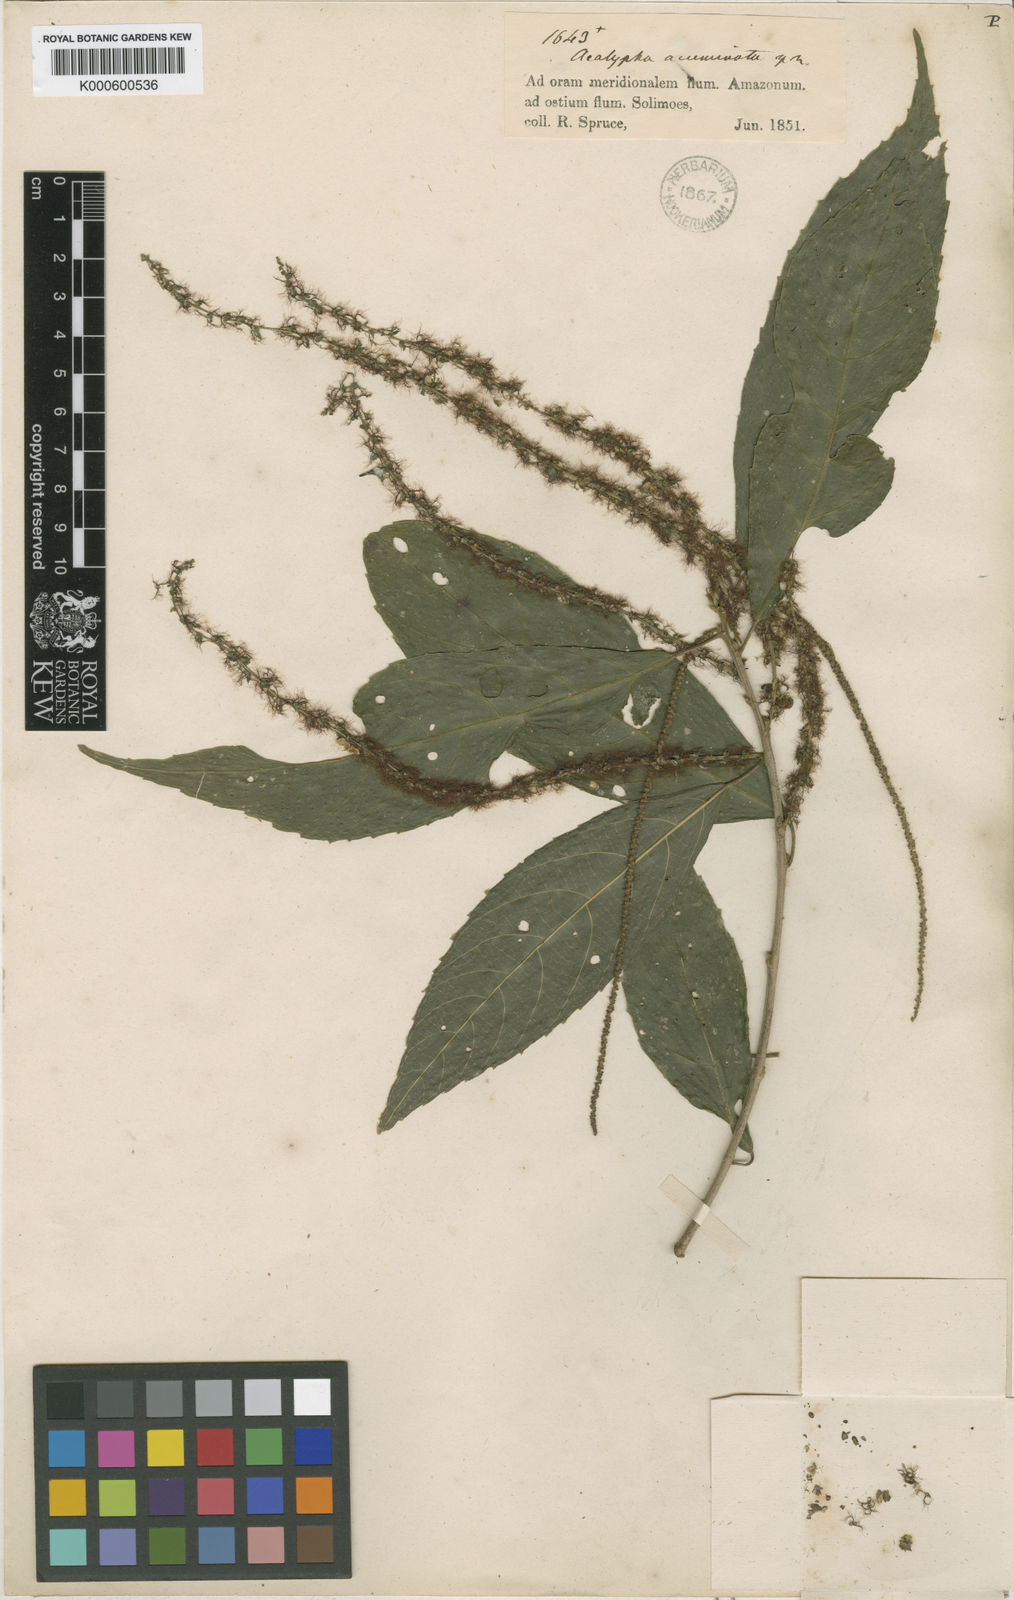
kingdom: Plantae
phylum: Tracheophyta
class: Magnoliopsida
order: Malpighiales
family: Euphorbiaceae
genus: Acalypha
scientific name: Acalypha acuminata
